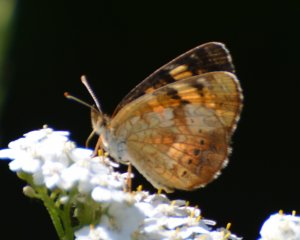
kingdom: Animalia
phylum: Arthropoda
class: Insecta
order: Lepidoptera
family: Nymphalidae
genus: Phyciodes
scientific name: Phyciodes tharos
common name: Northern Crescent
